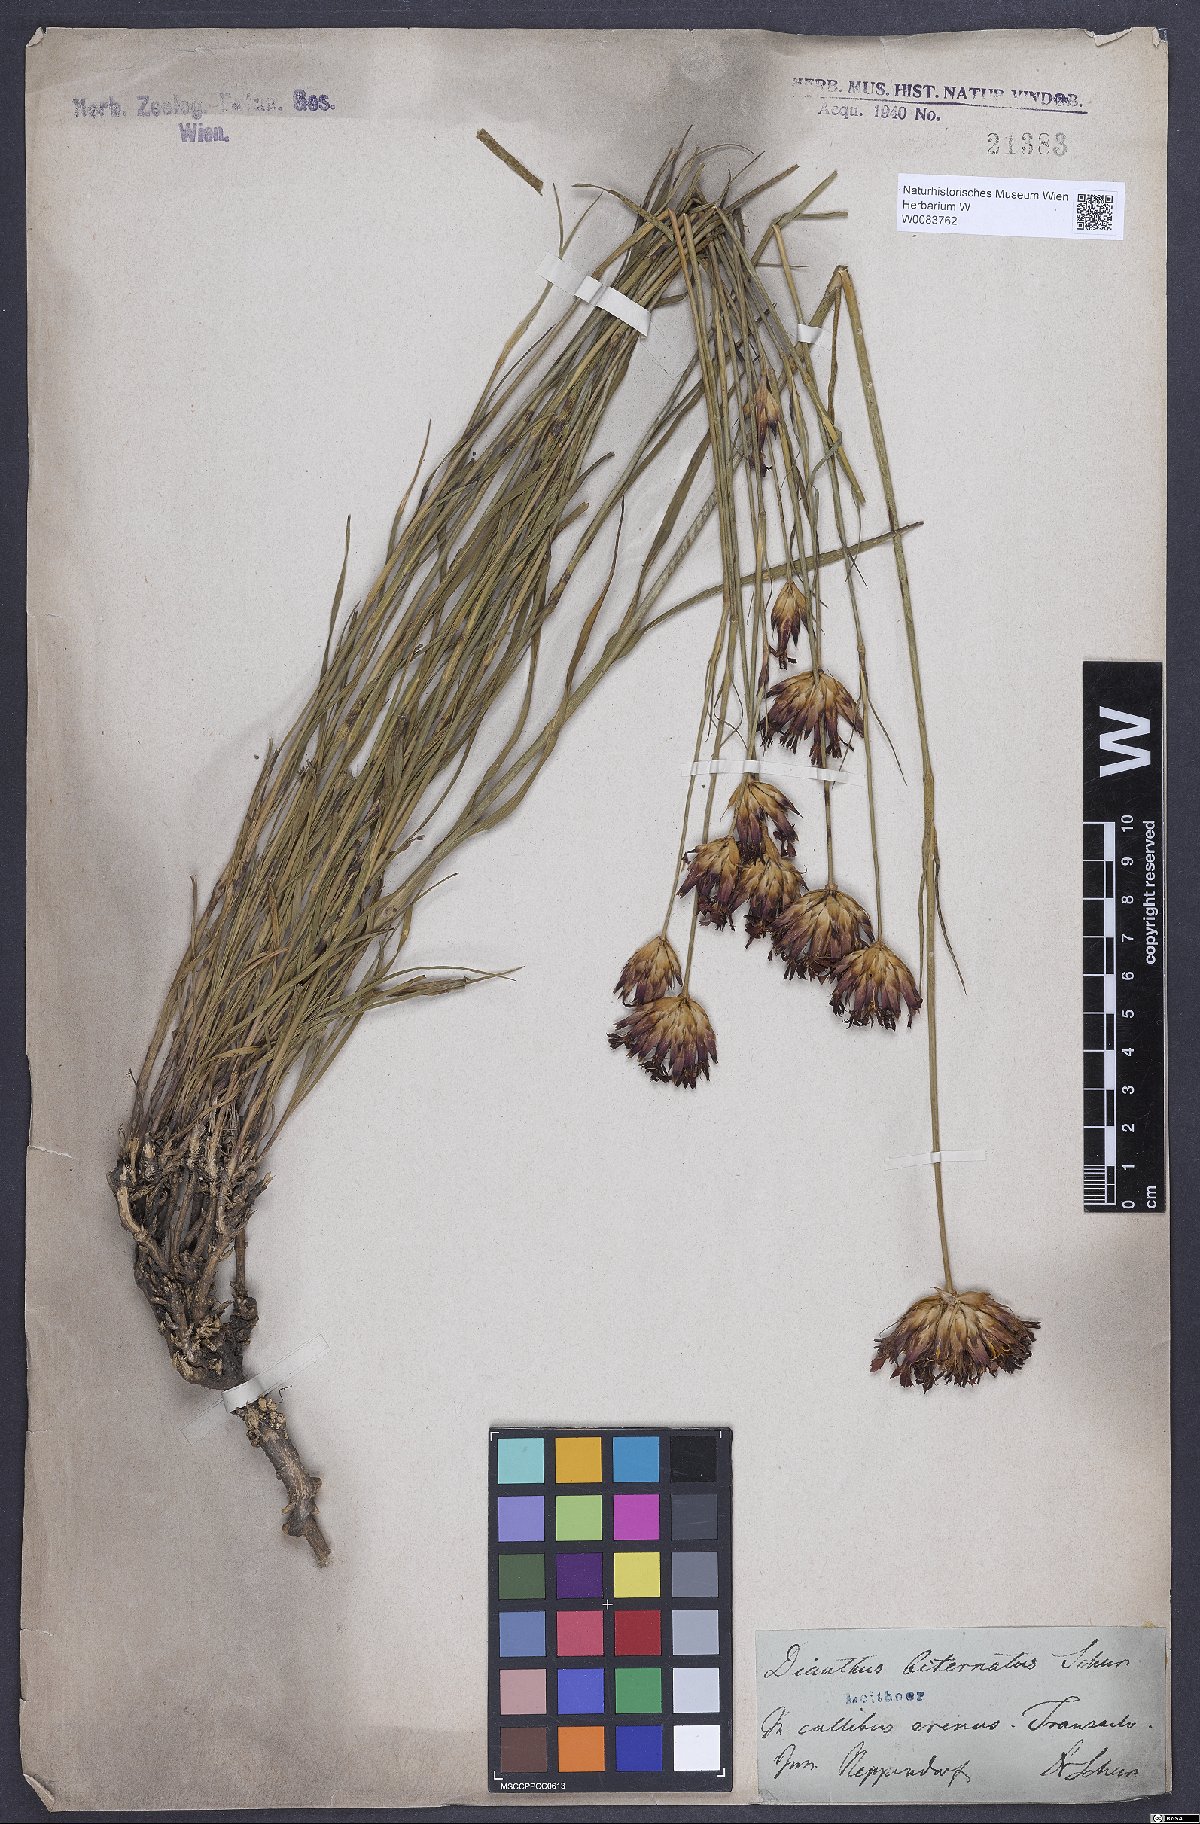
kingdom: Plantae
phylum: Tracheophyta
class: Magnoliopsida
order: Caryophyllales
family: Caryophyllaceae
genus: Dianthus
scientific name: Dianthus giganteus
